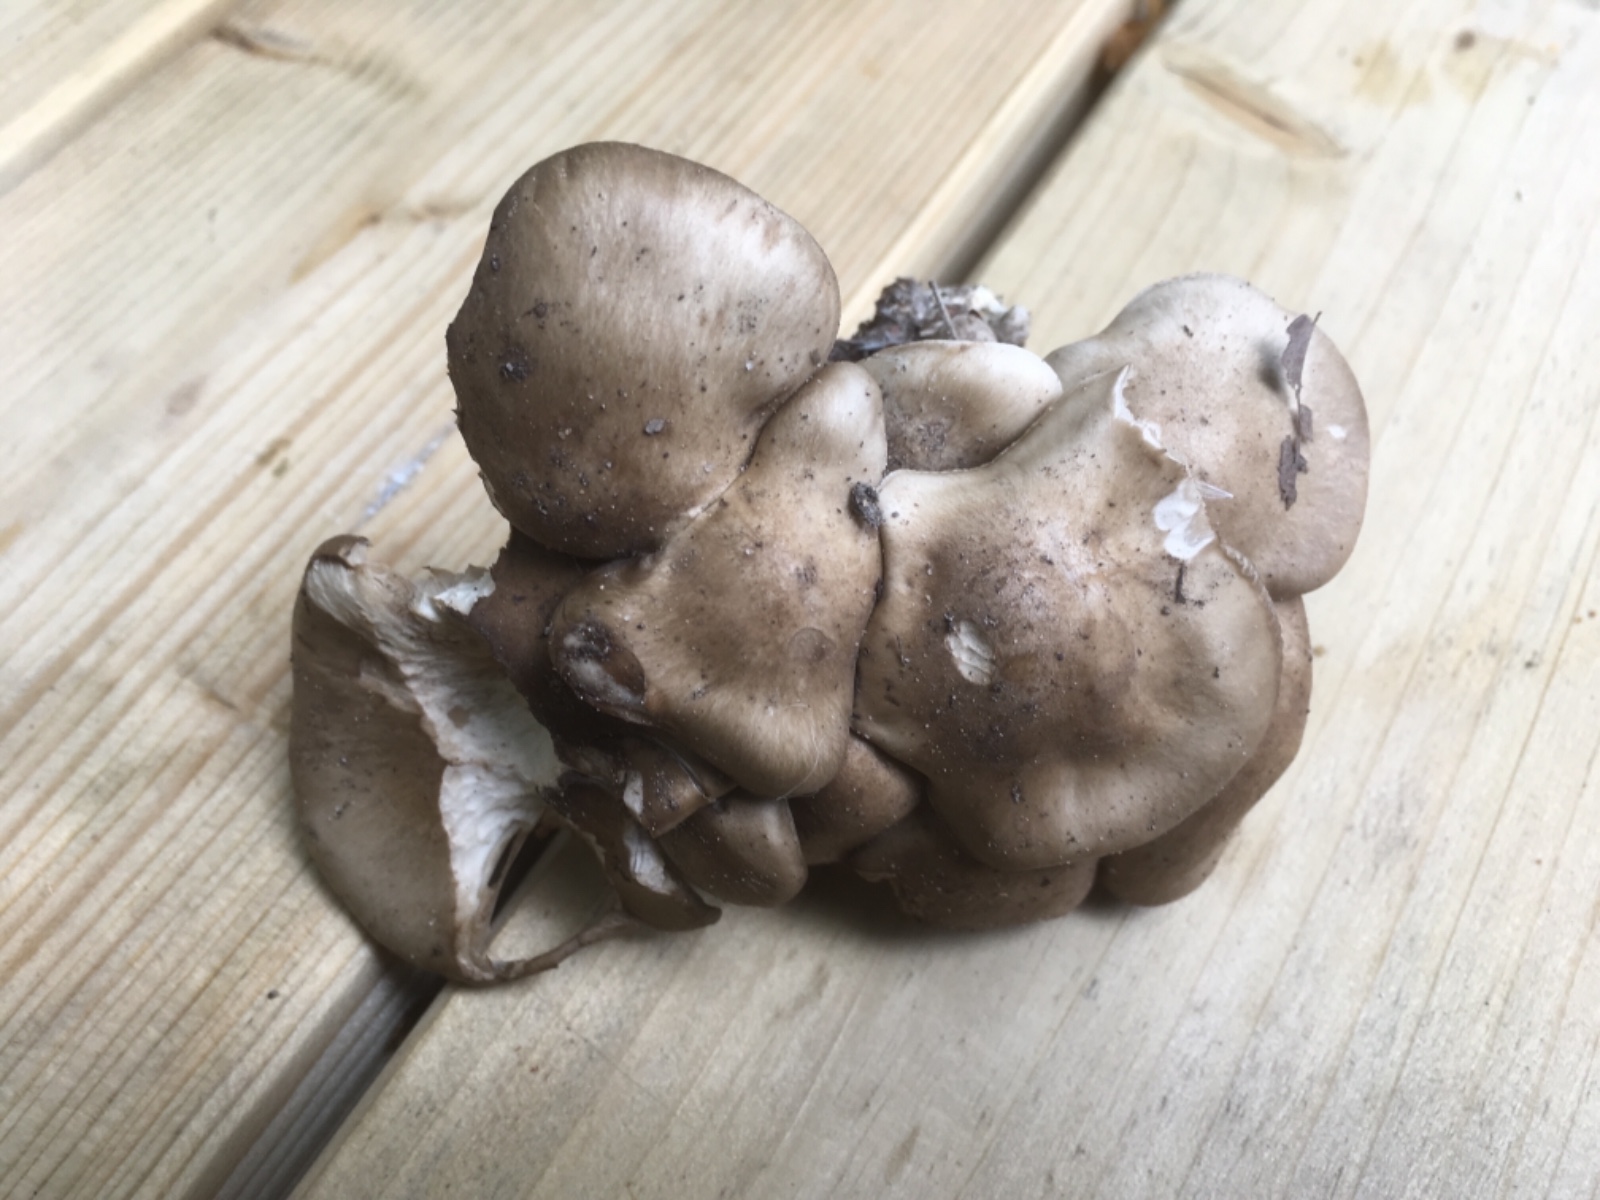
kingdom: Fungi
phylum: Basidiomycota
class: Agaricomycetes
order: Agaricales
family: Lyophyllaceae
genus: Lyophyllum
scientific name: Lyophyllum
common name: gråblad
